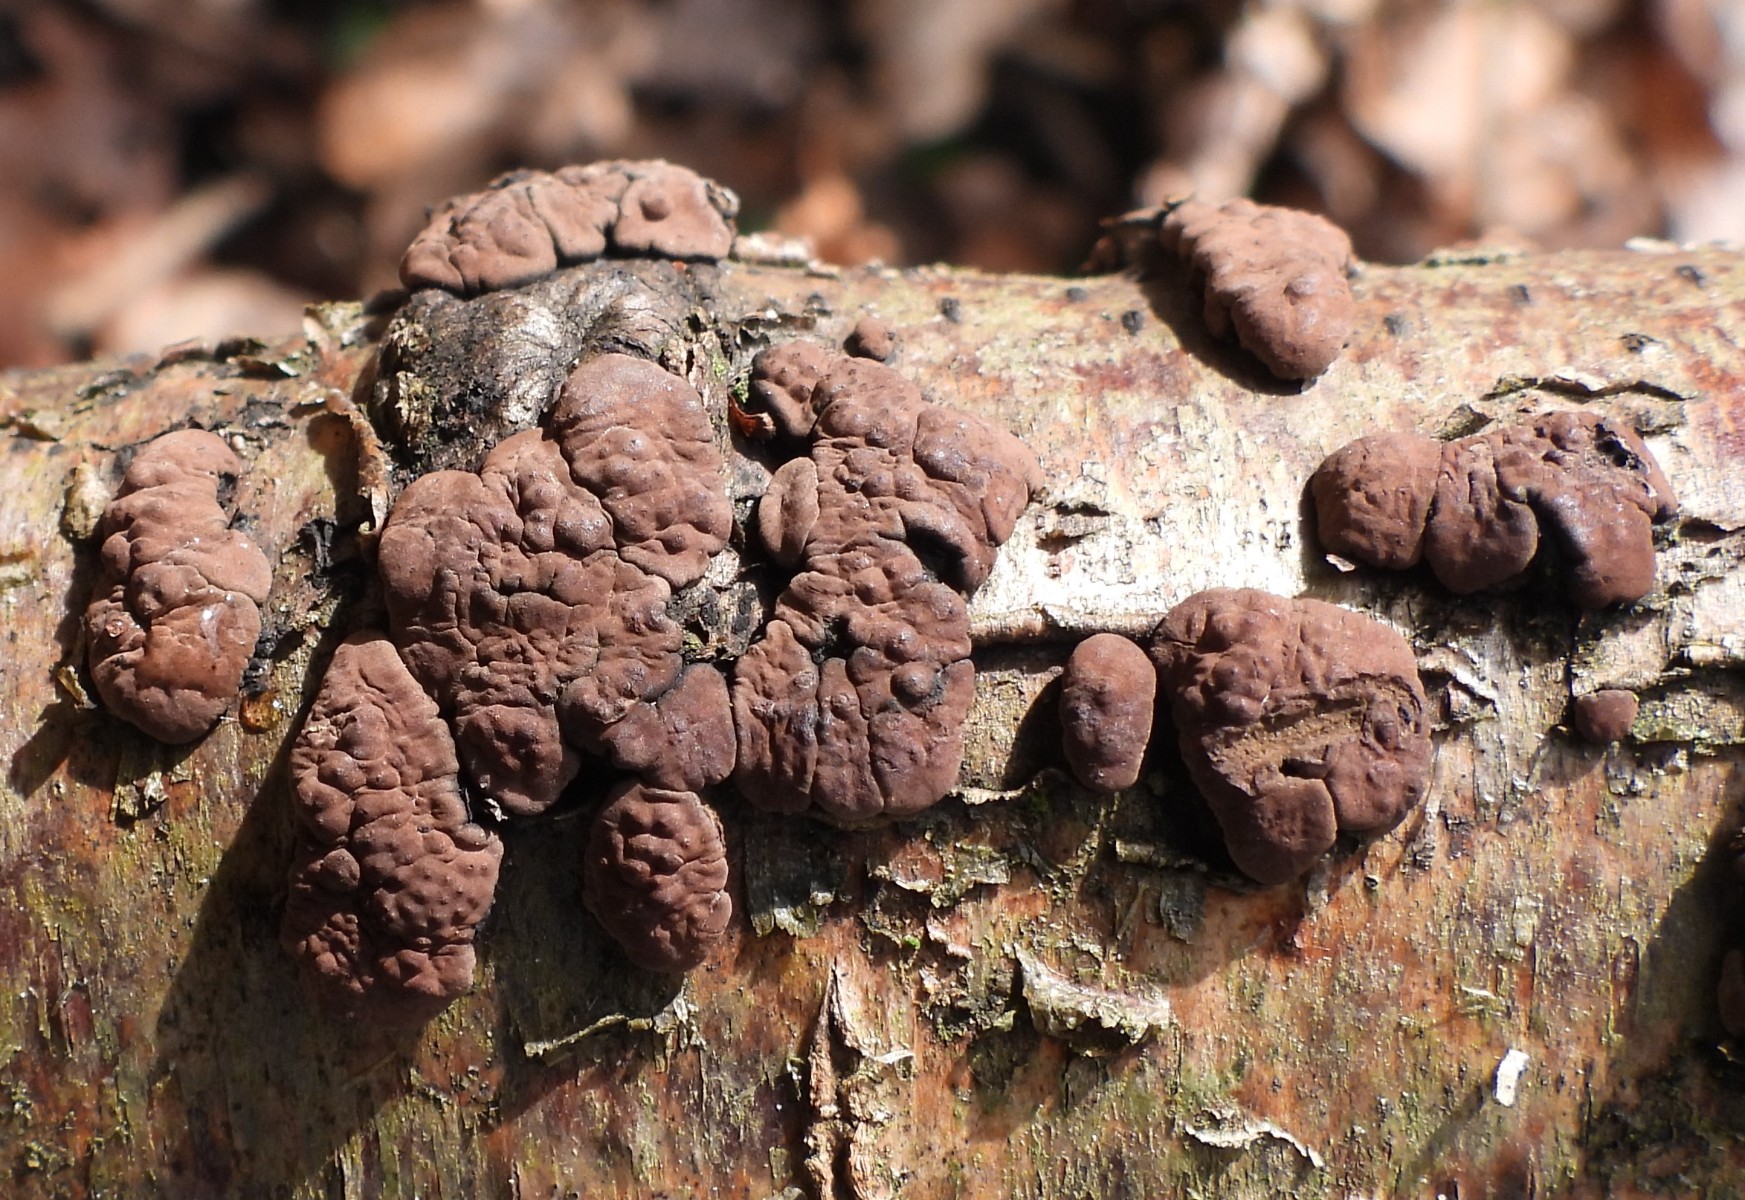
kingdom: Fungi
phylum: Ascomycota
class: Sordariomycetes
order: Xylariales
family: Hypoxylaceae
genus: Jackrogersella
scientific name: Jackrogersella multiformis
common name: foranderlig kulbær
